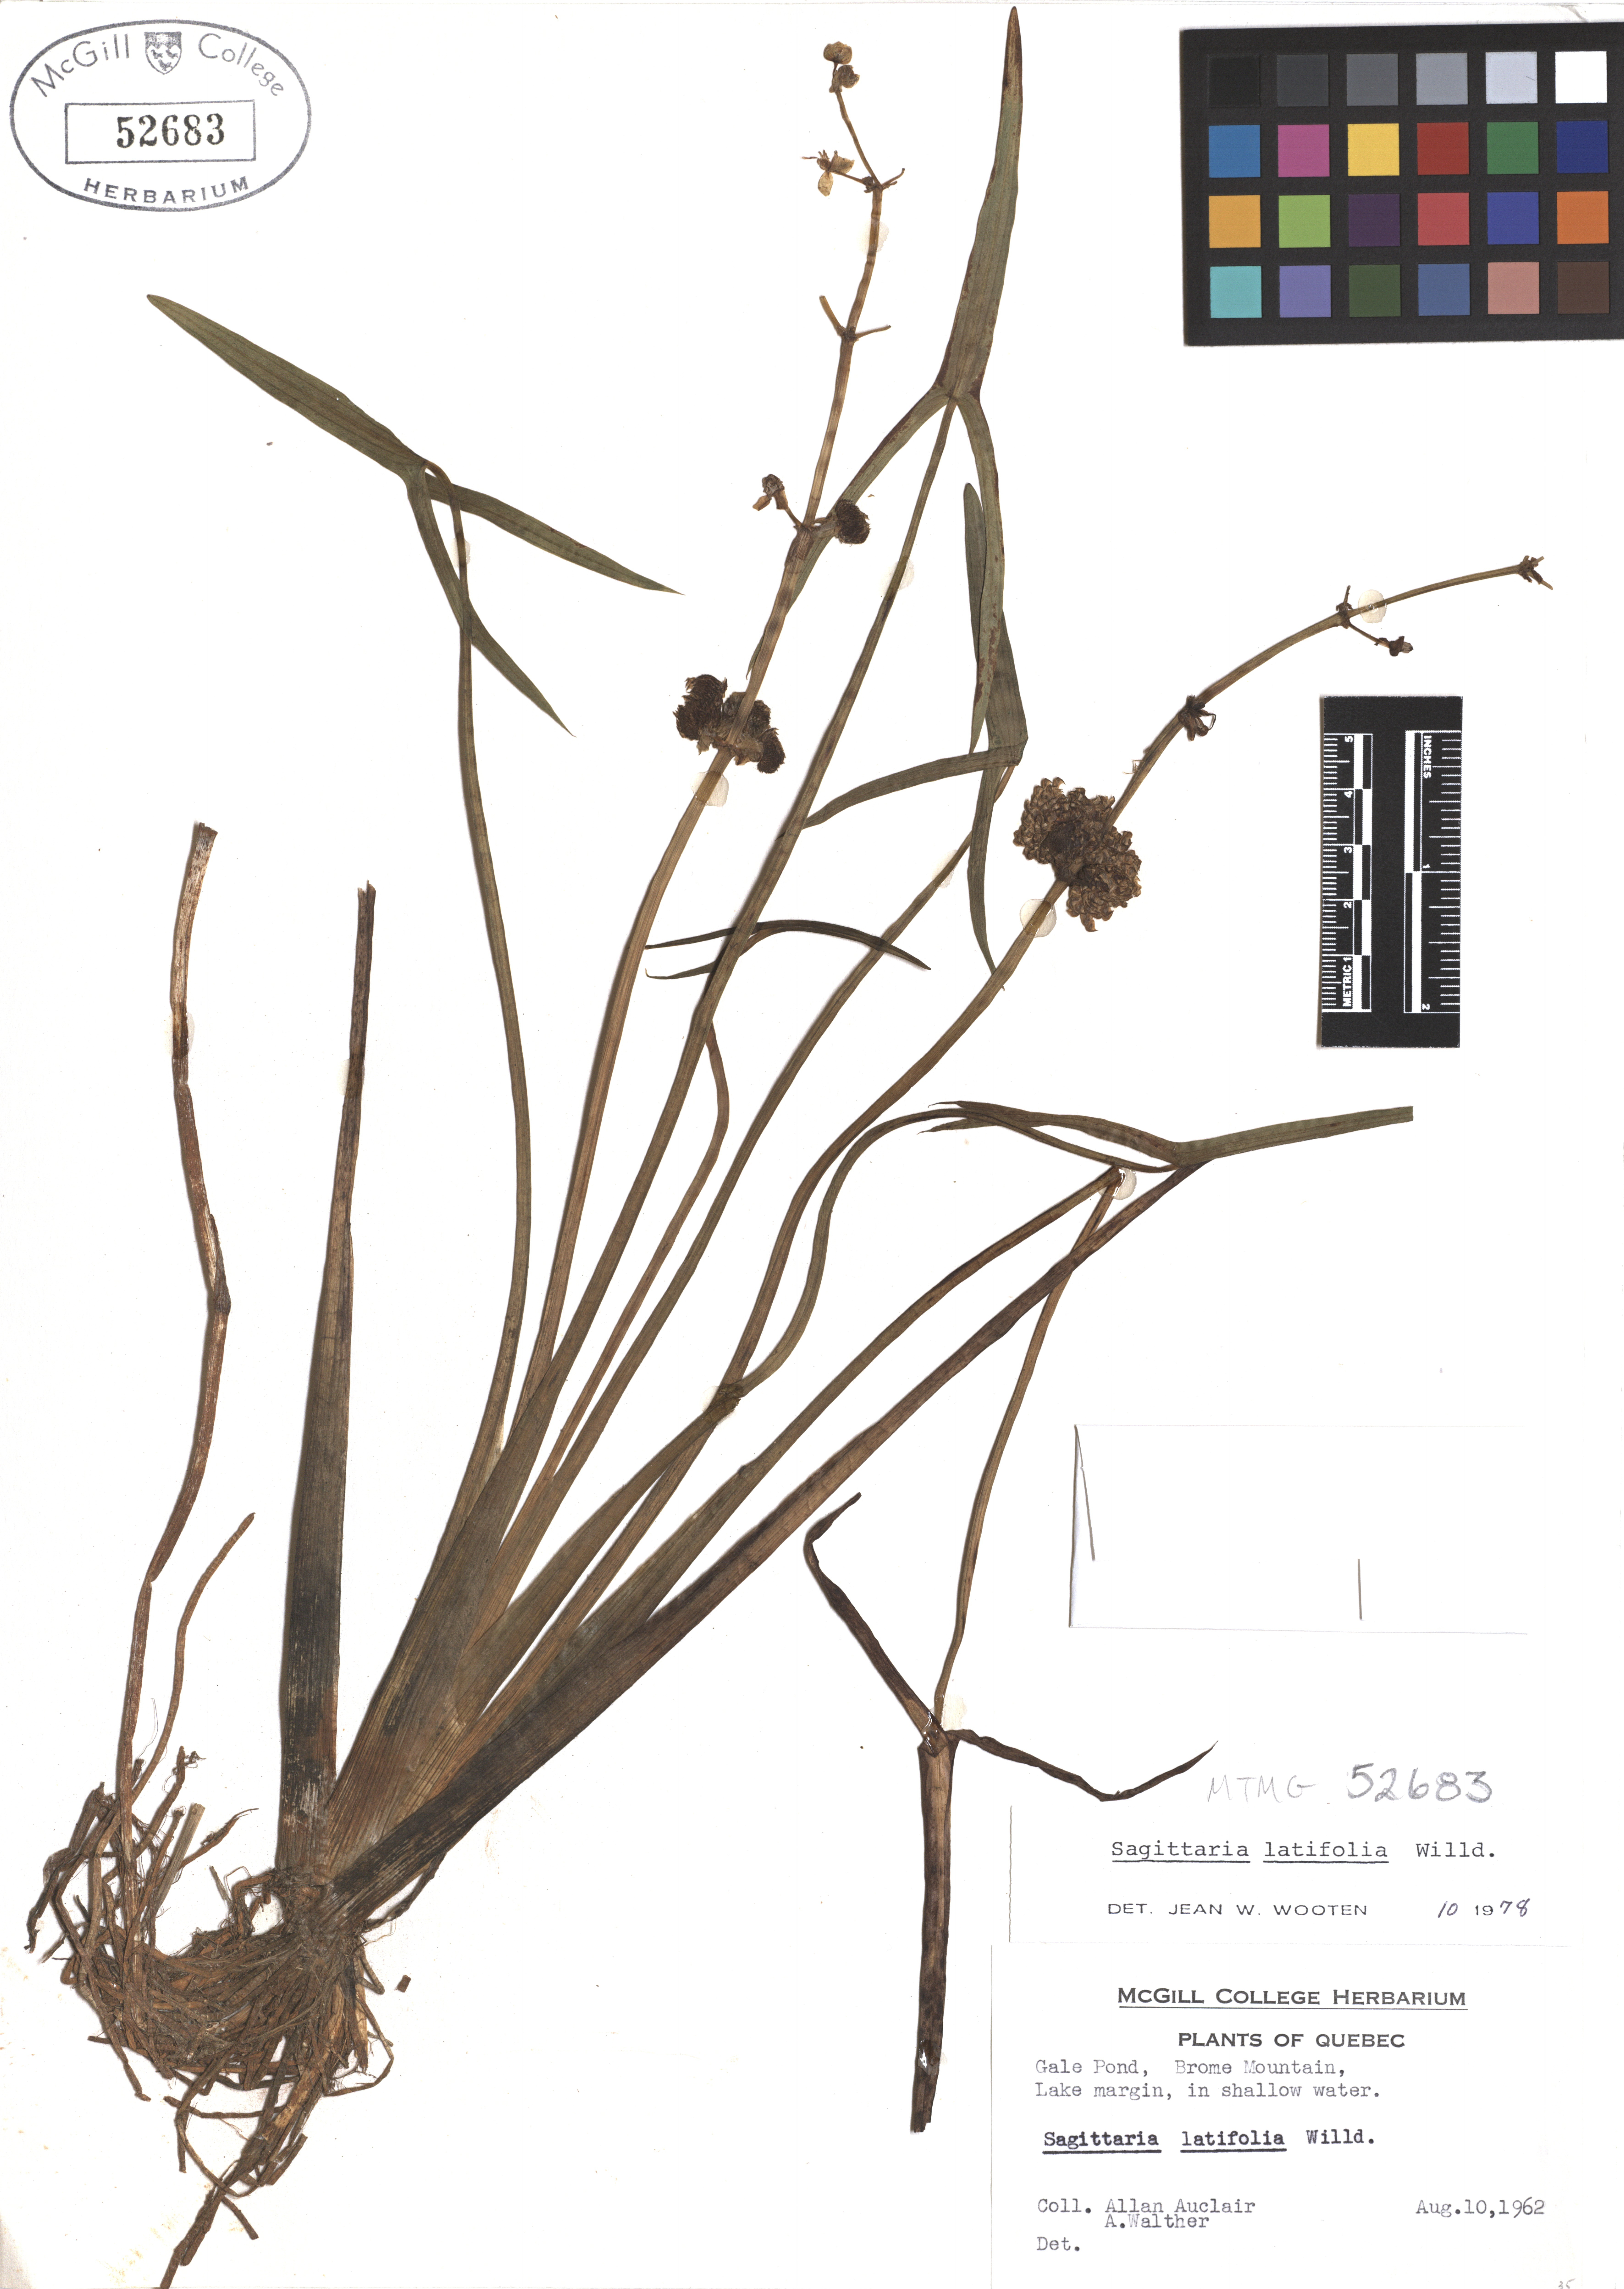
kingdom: Plantae
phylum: Tracheophyta
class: Liliopsida
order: Alismatales
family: Alismataceae
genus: Sagittaria
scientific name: Sagittaria latifolia
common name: Duck-potato
